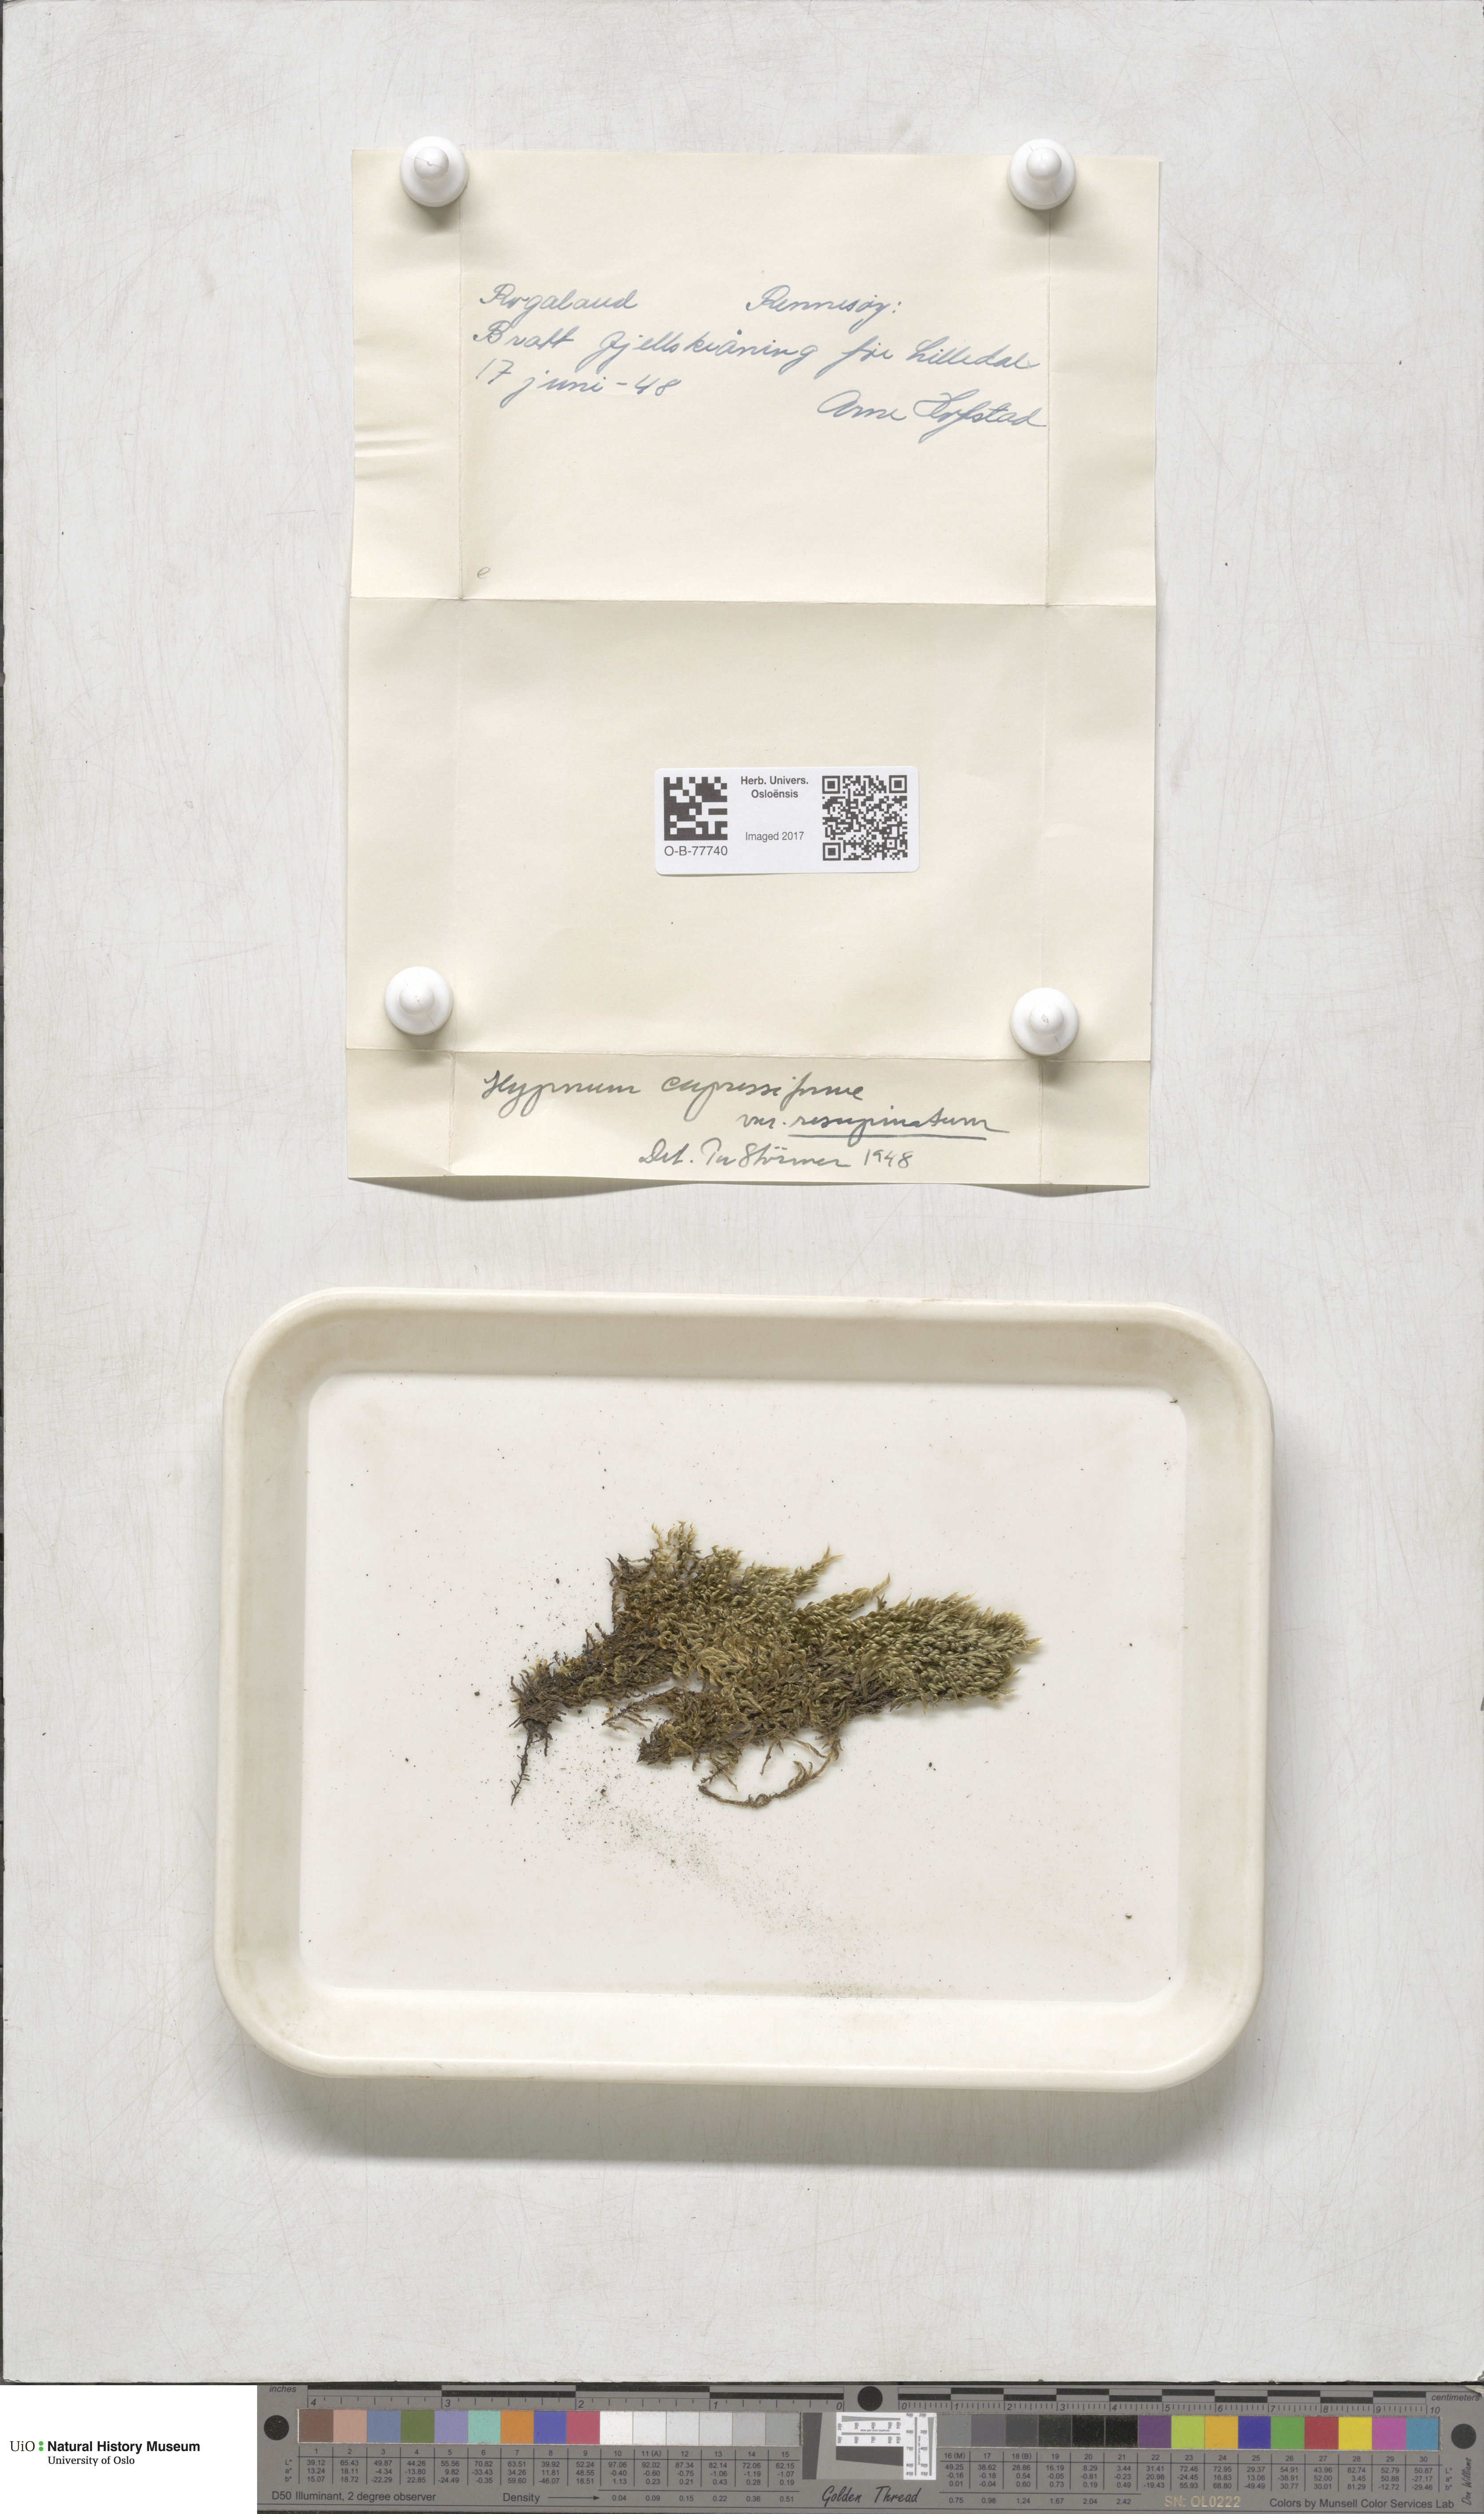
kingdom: Plantae
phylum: Bryophyta
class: Bryopsida
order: Hypnales
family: Hypnaceae
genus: Hypnum
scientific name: Hypnum cupressiforme
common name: Cypress-leaved plait-moss
